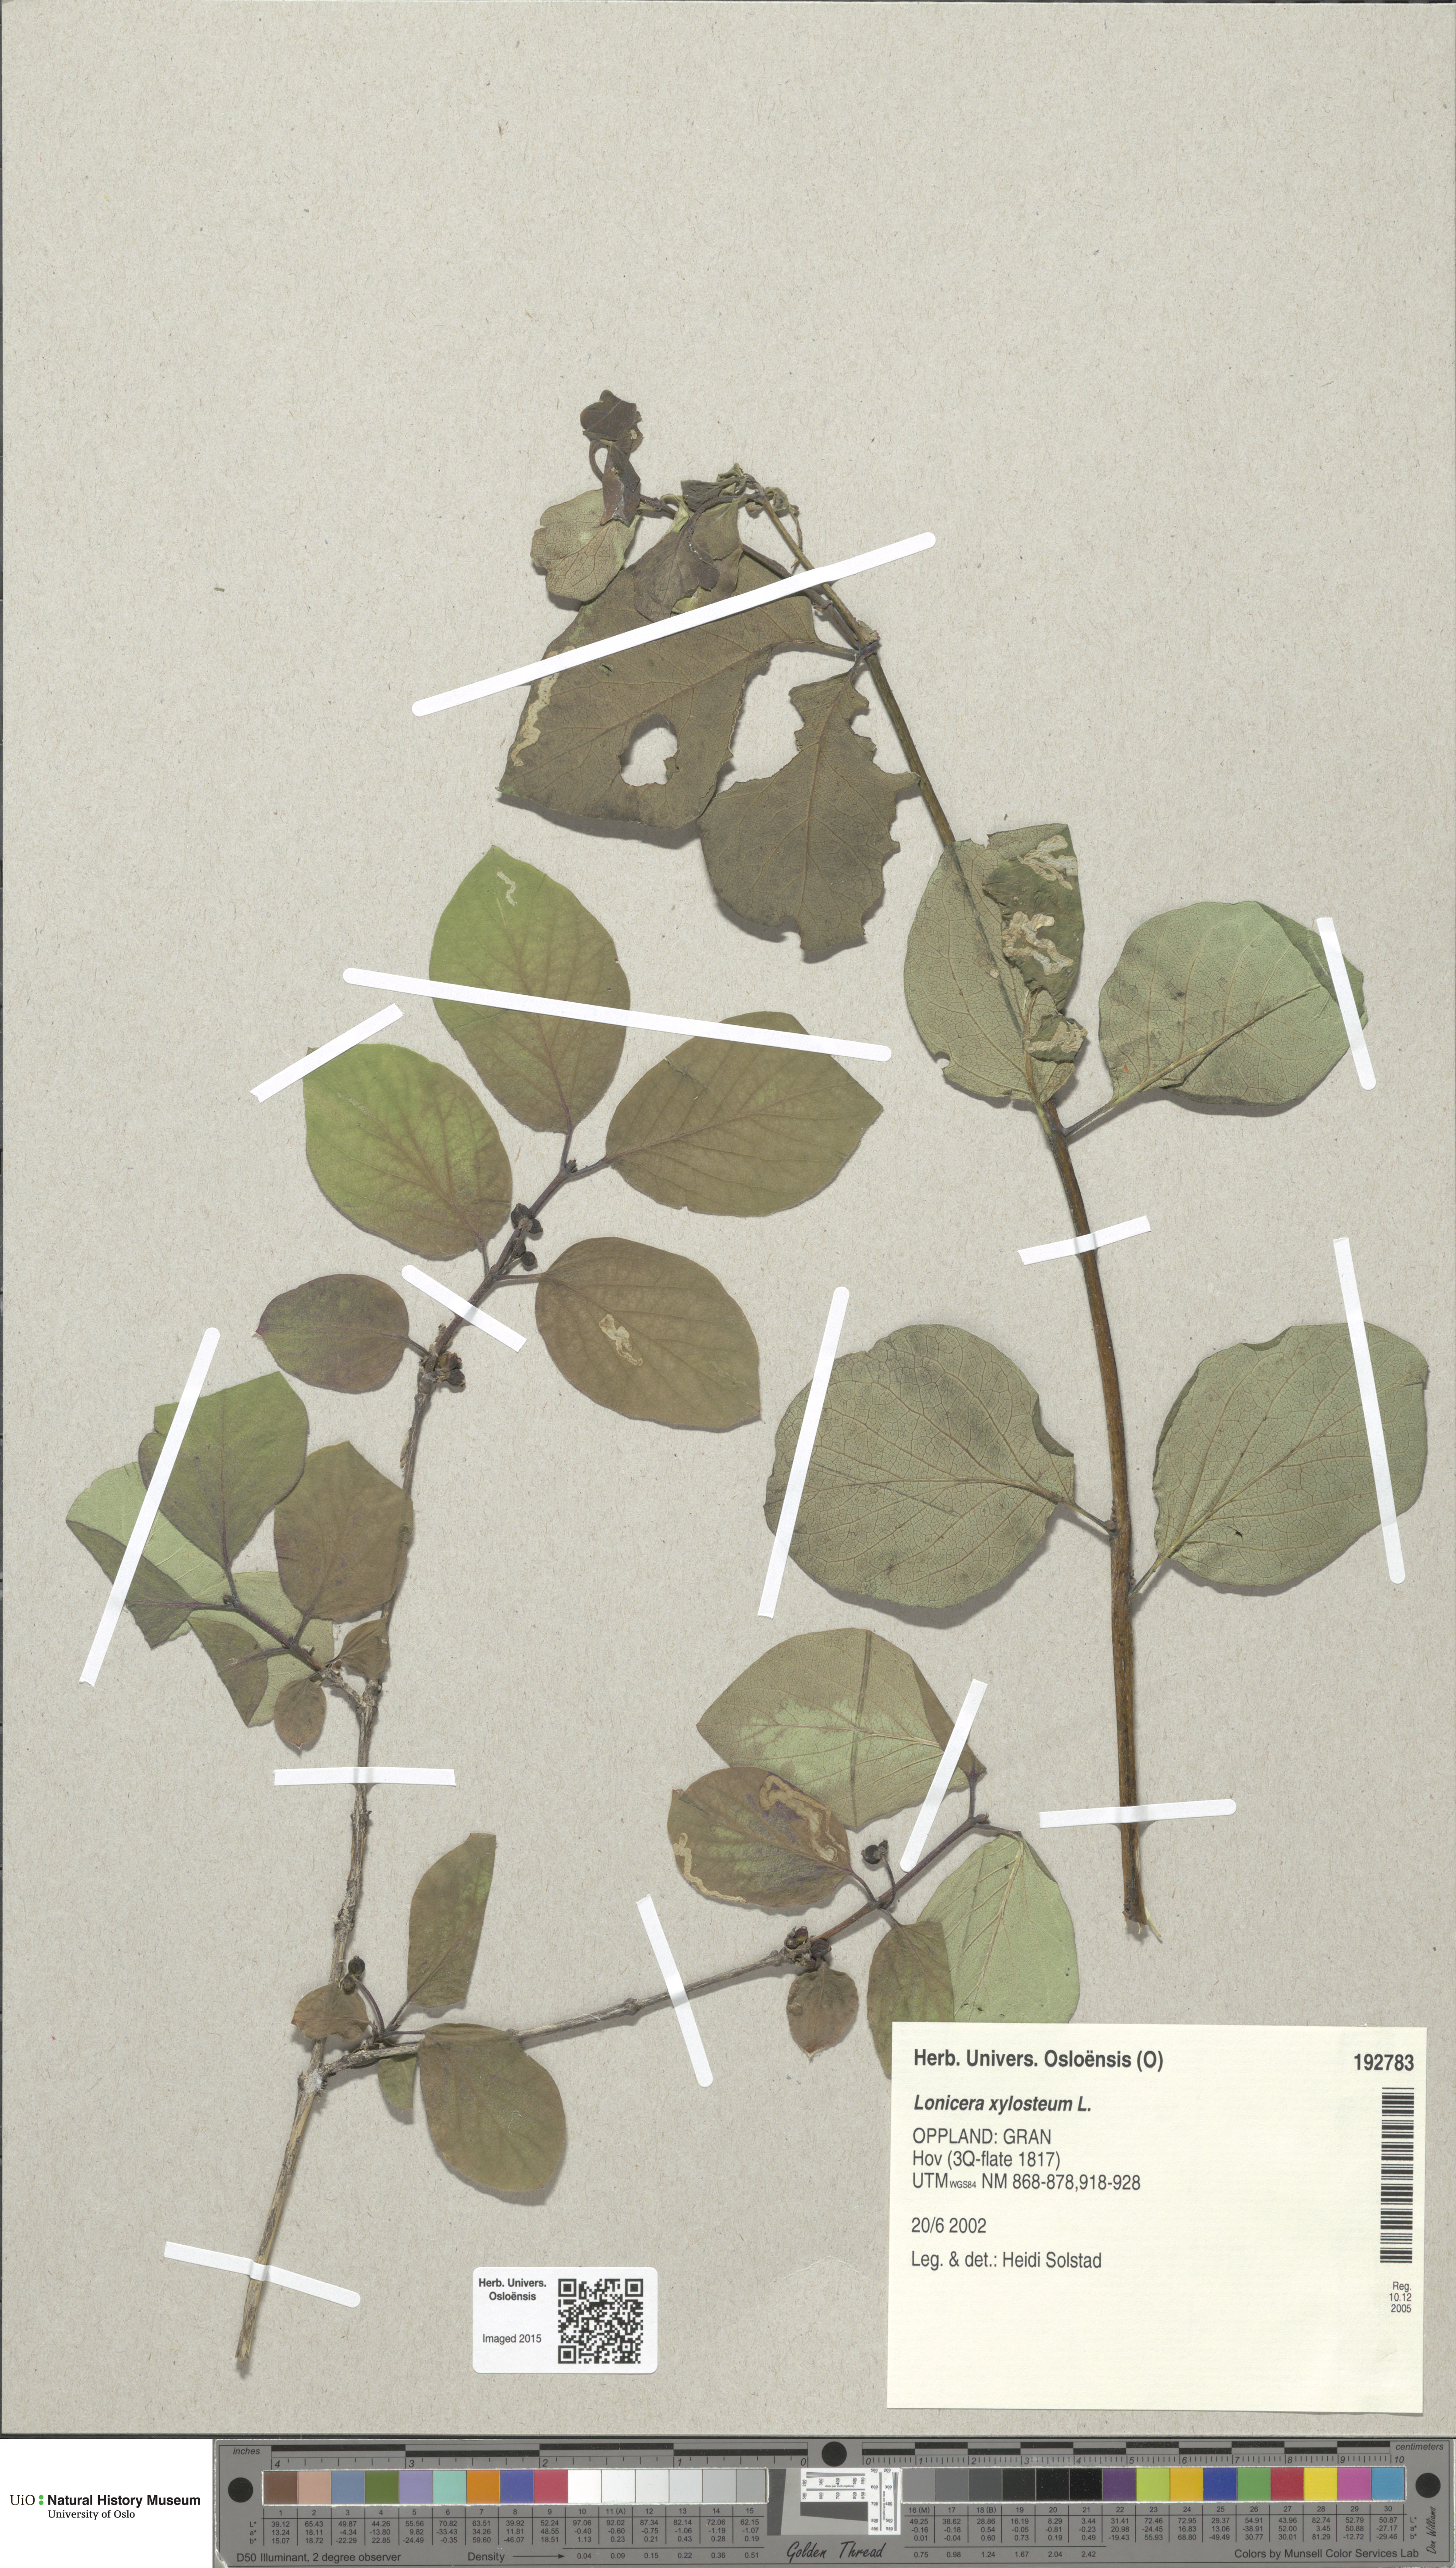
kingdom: Plantae
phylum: Tracheophyta
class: Magnoliopsida
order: Dipsacales
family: Caprifoliaceae
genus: Lonicera
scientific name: Lonicera xylosteum
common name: Fly honeysuckle
